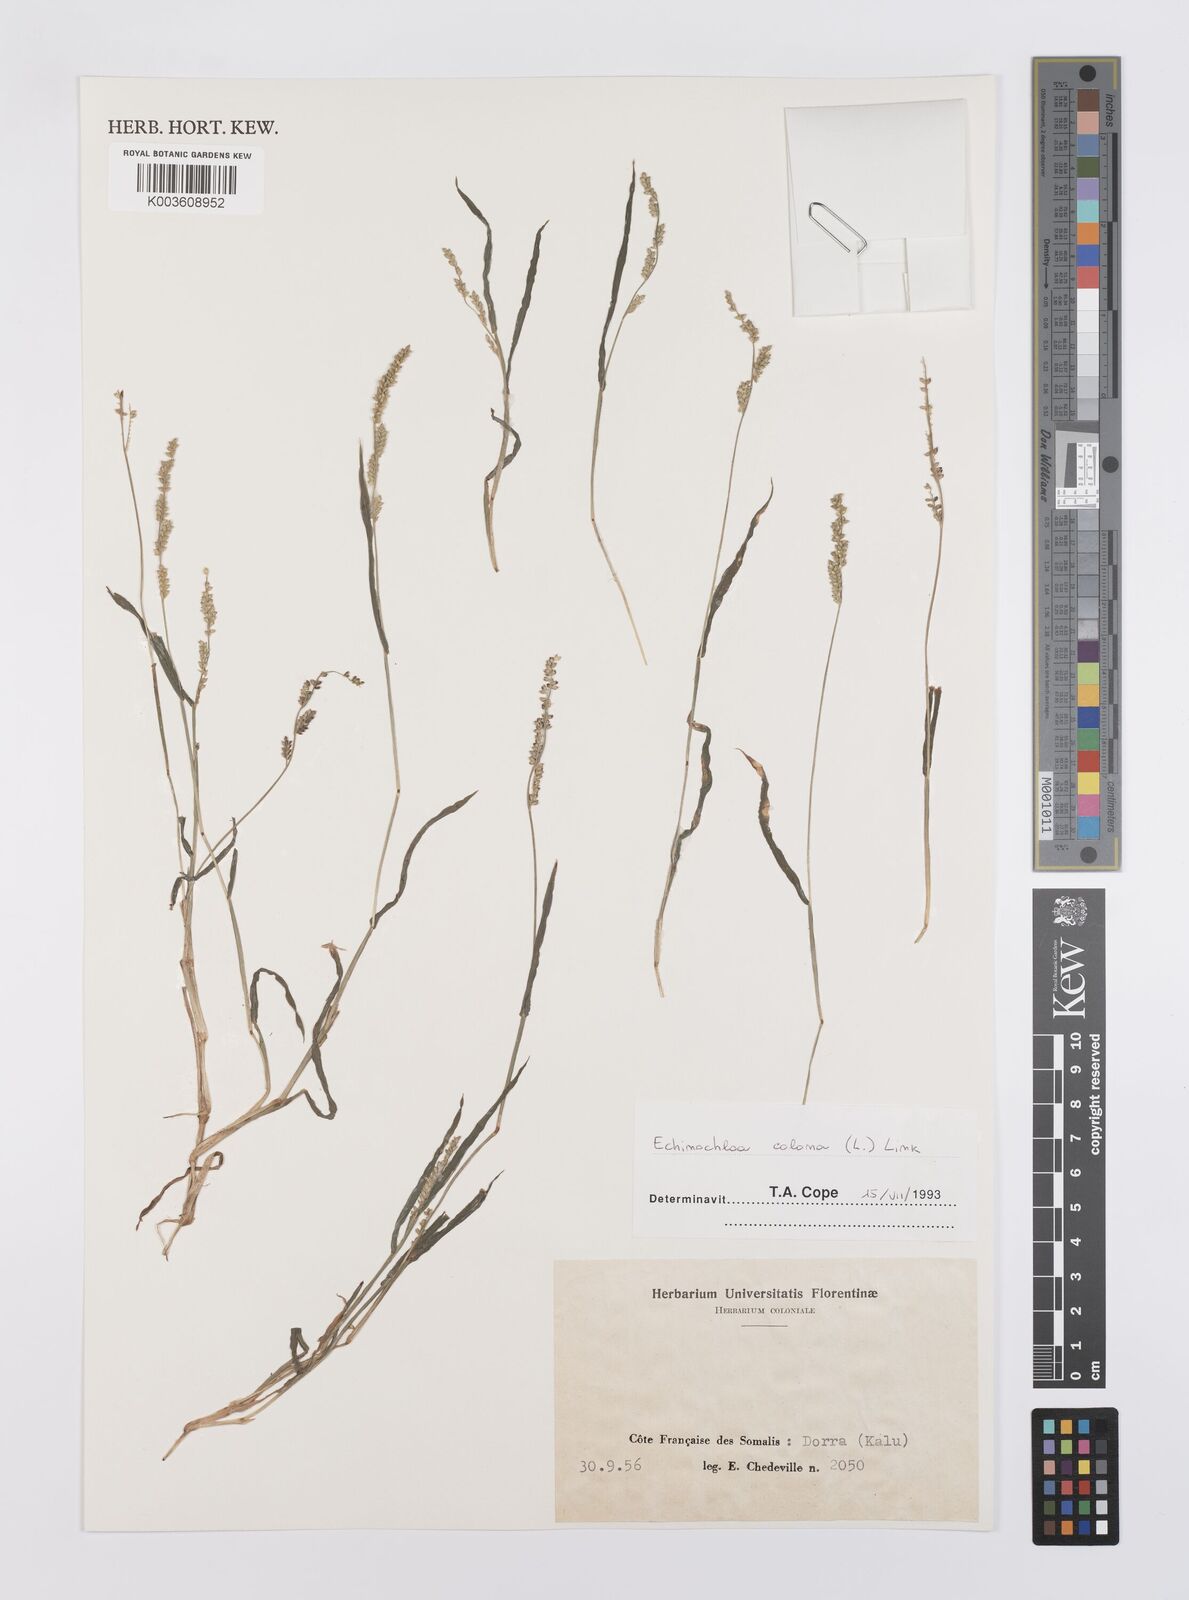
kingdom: Plantae
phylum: Tracheophyta
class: Liliopsida
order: Poales
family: Poaceae
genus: Echinochloa
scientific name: Echinochloa colonum
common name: Jungle rice
